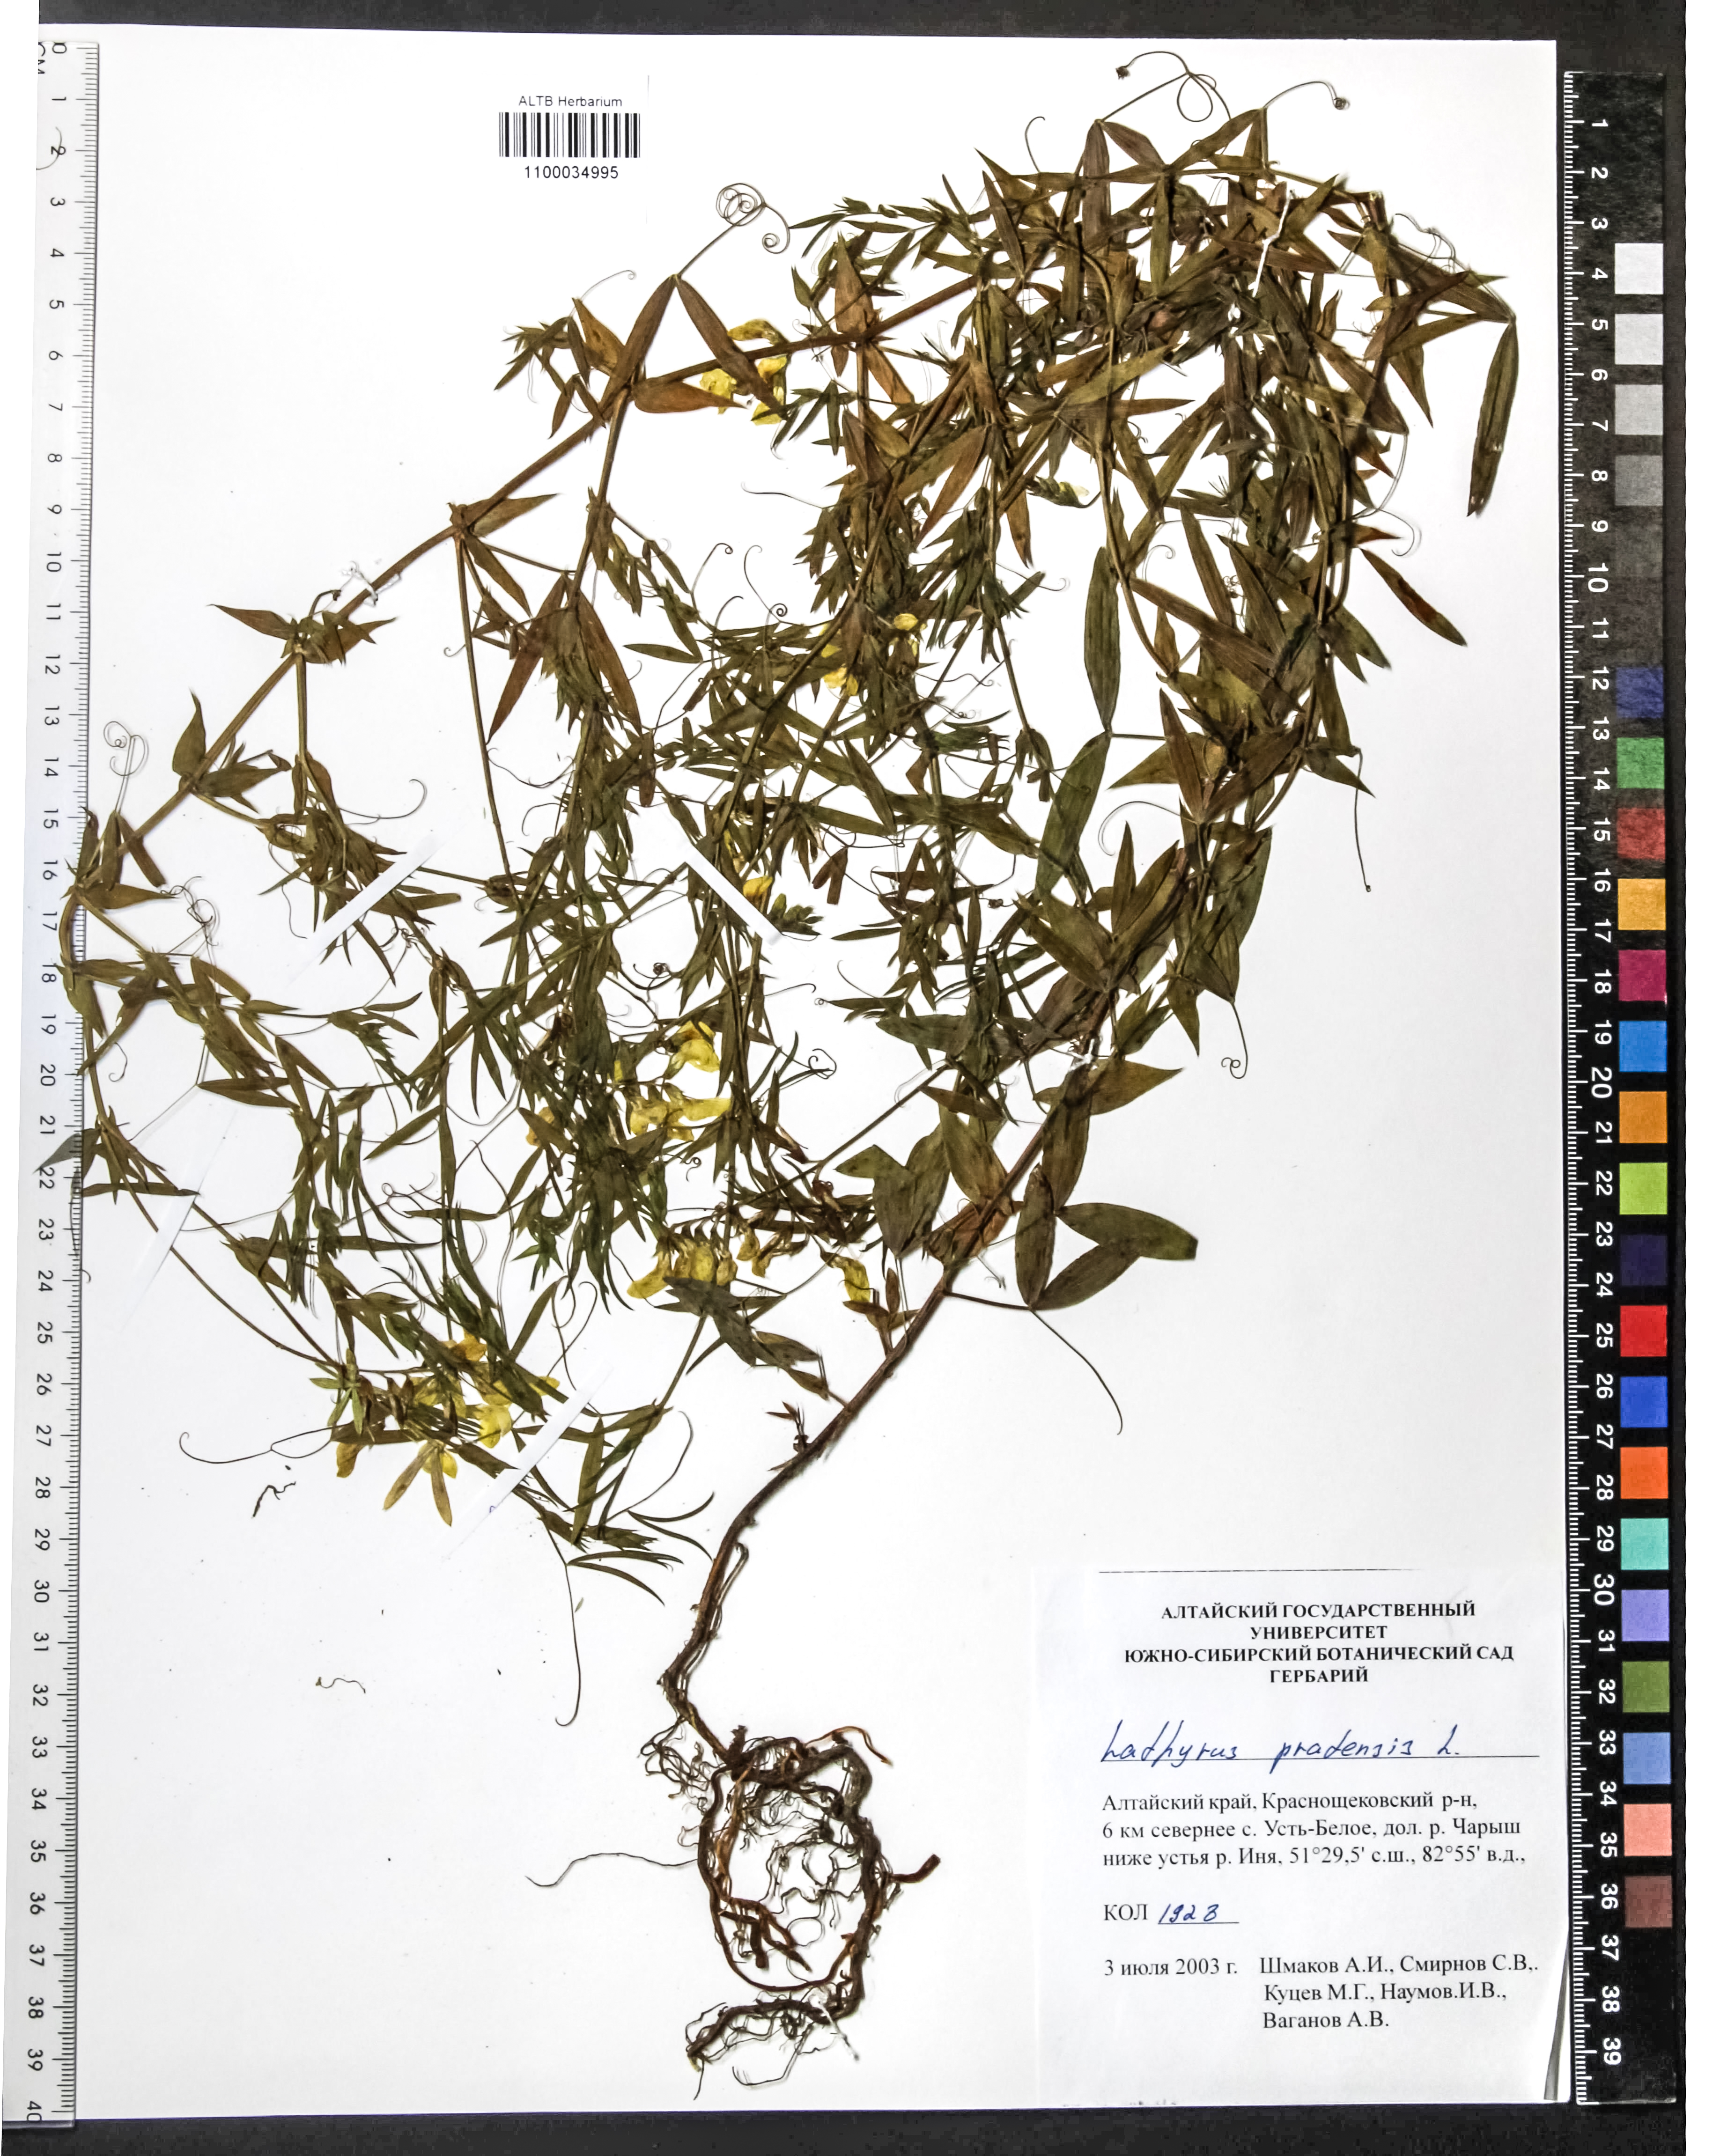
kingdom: Plantae
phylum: Tracheophyta
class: Magnoliopsida
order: Fabales
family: Fabaceae
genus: Lathyrus
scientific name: Lathyrus pratensis
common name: Meadow vetchling
